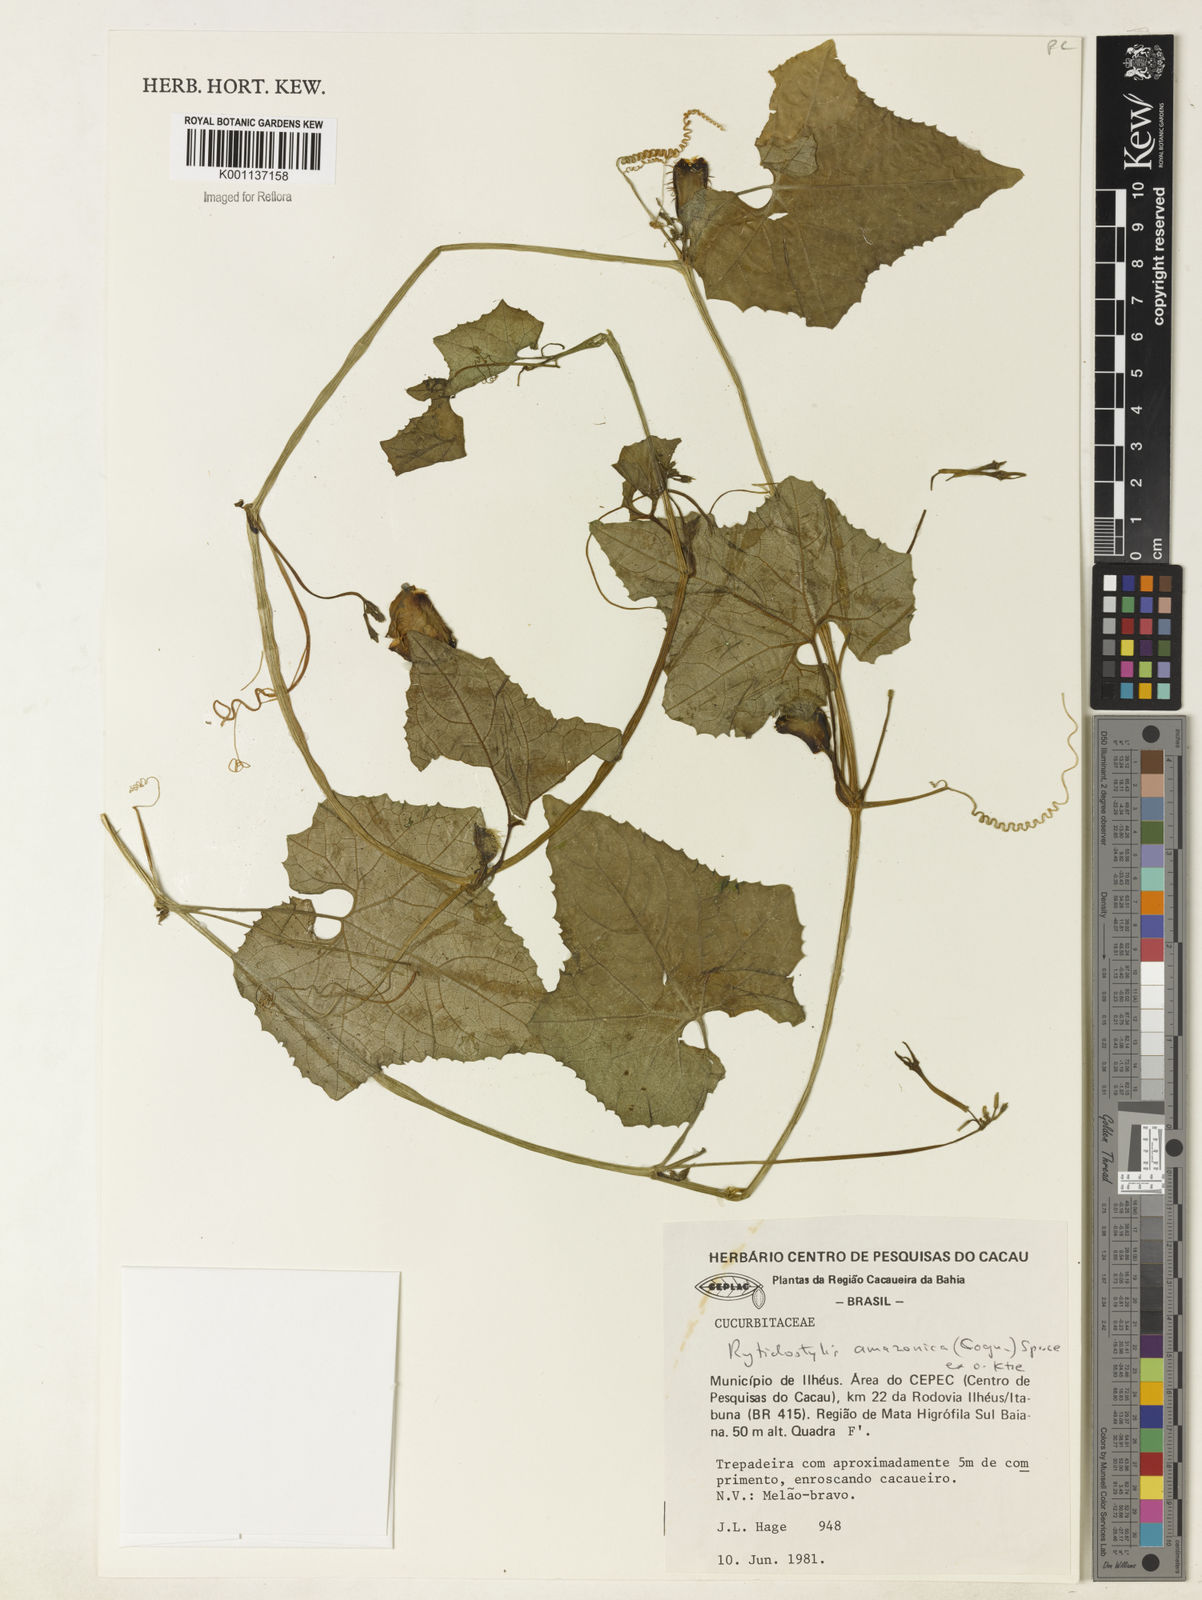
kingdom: Plantae
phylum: Tracheophyta
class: Magnoliopsida
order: Cucurbitales
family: Cucurbitaceae
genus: Cyclanthera
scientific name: Cyclanthera carthagenensis
